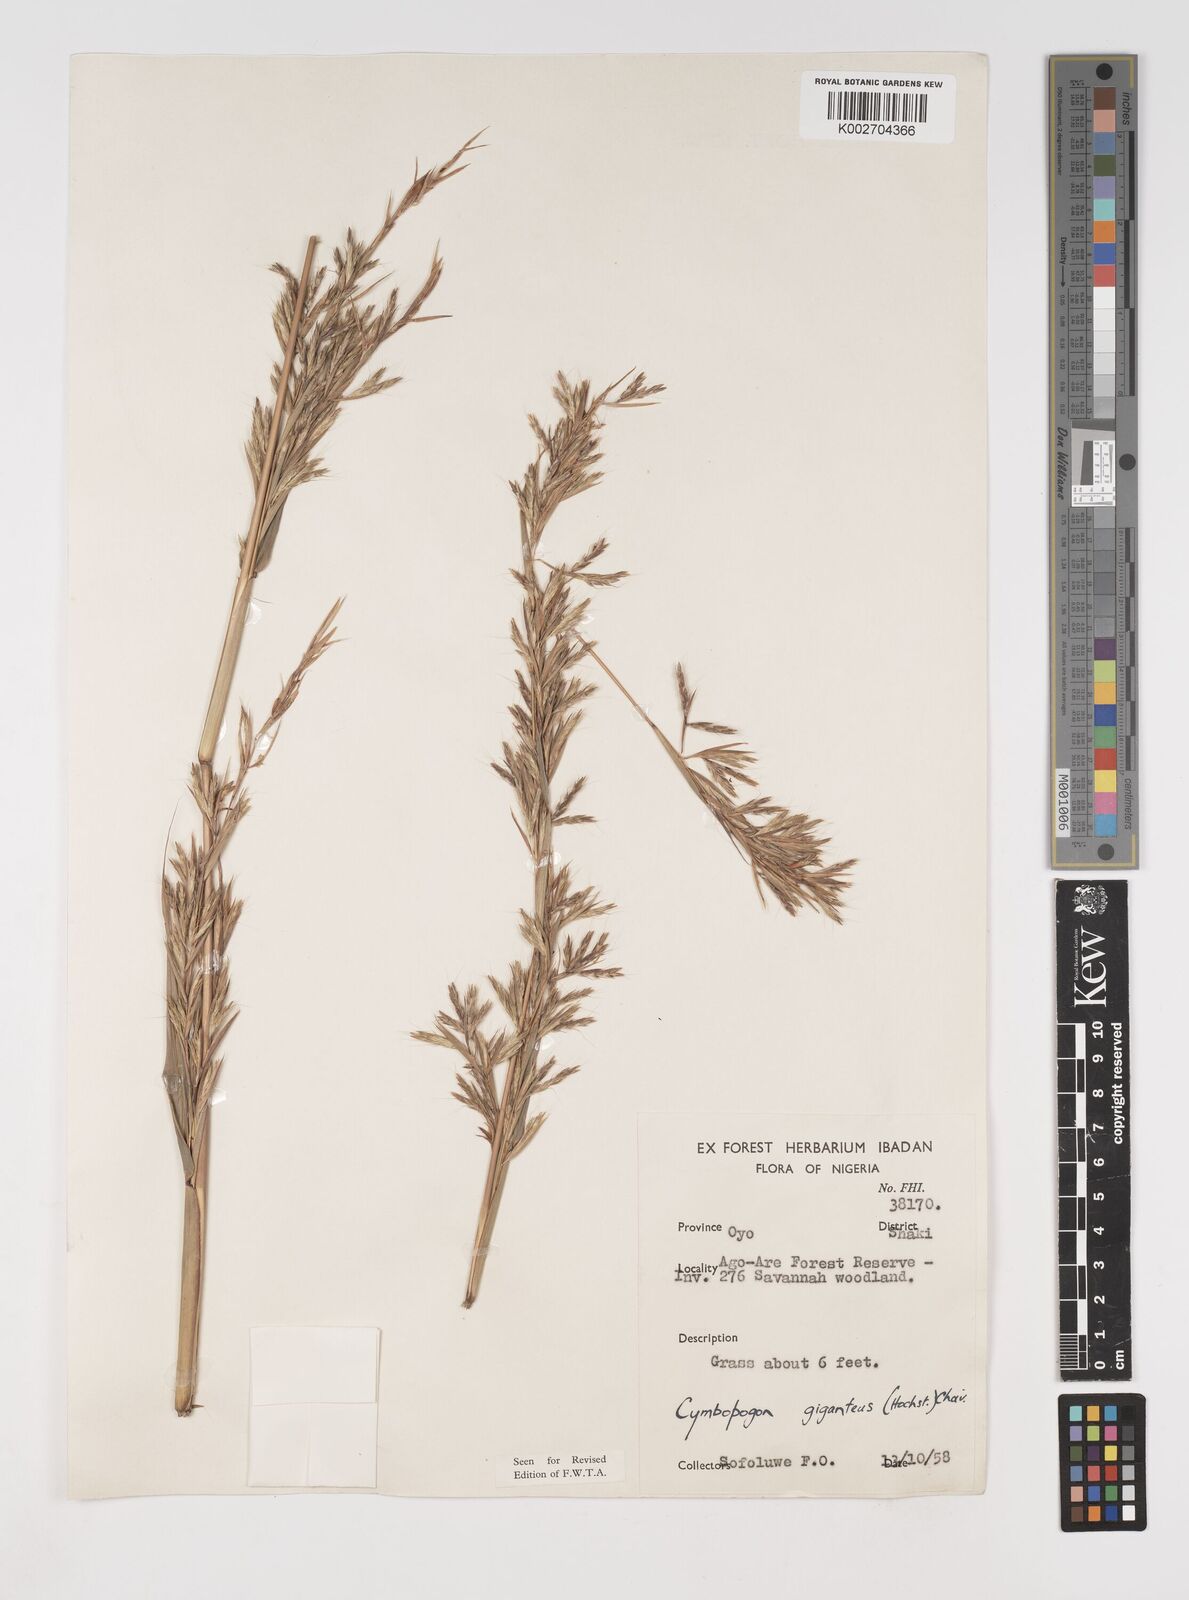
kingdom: Plantae
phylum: Tracheophyta
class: Liliopsida
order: Poales
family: Poaceae
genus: Cymbopogon
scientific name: Cymbopogon giganteus
